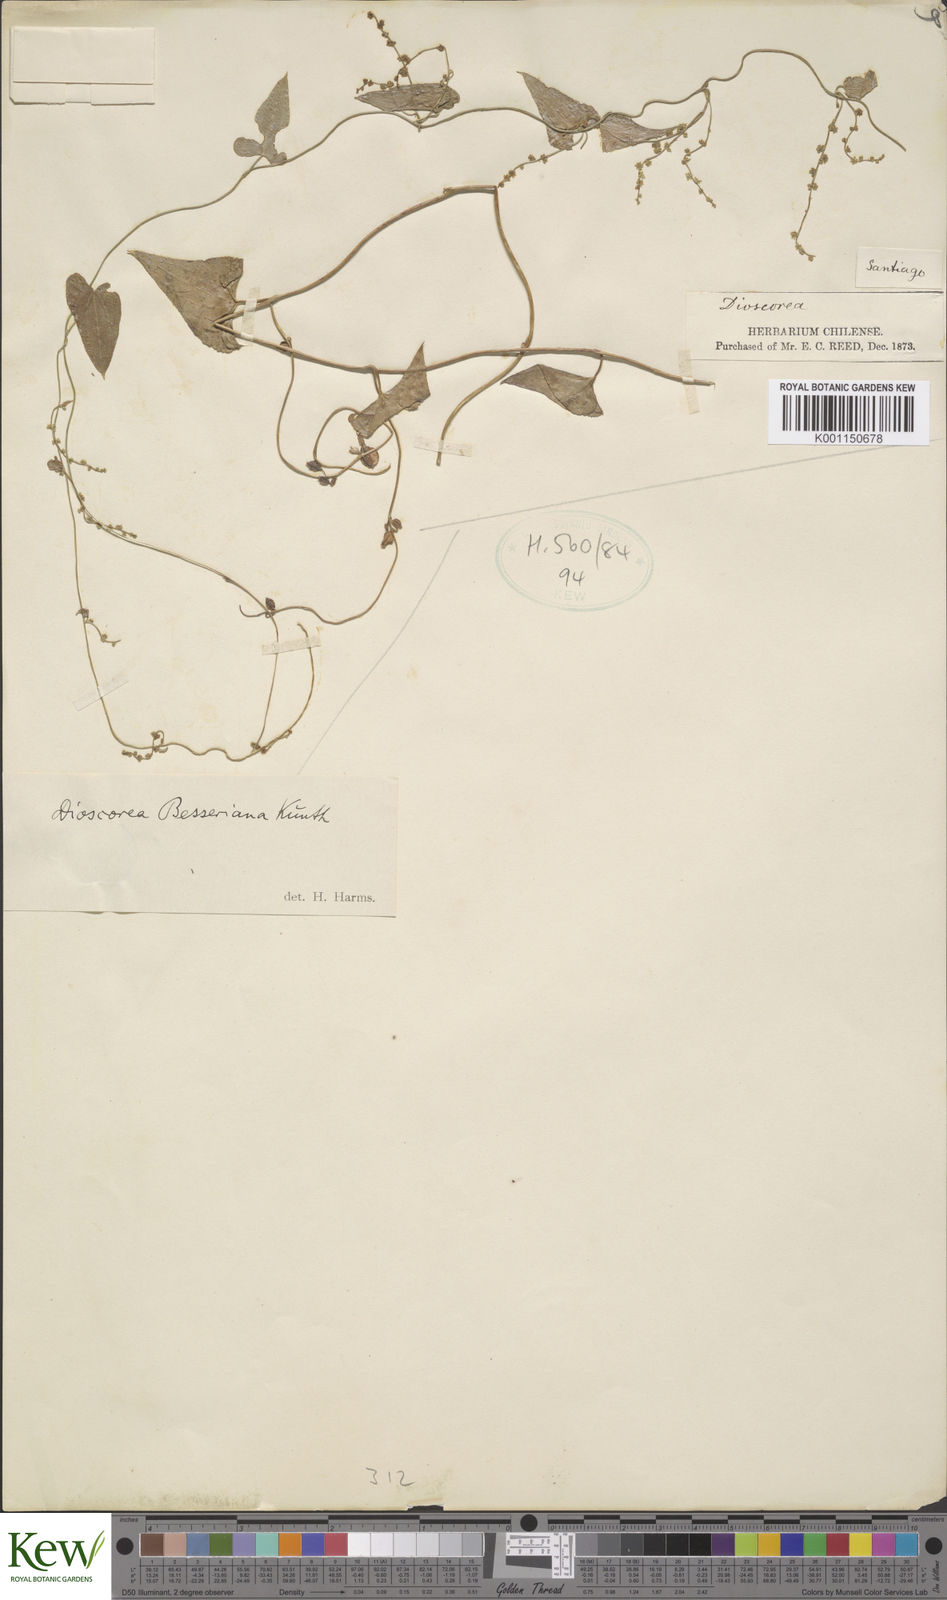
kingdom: Plantae
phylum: Tracheophyta
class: Liliopsida
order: Dioscoreales
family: Dioscoreaceae
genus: Dioscorea
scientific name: Dioscorea besseriana
